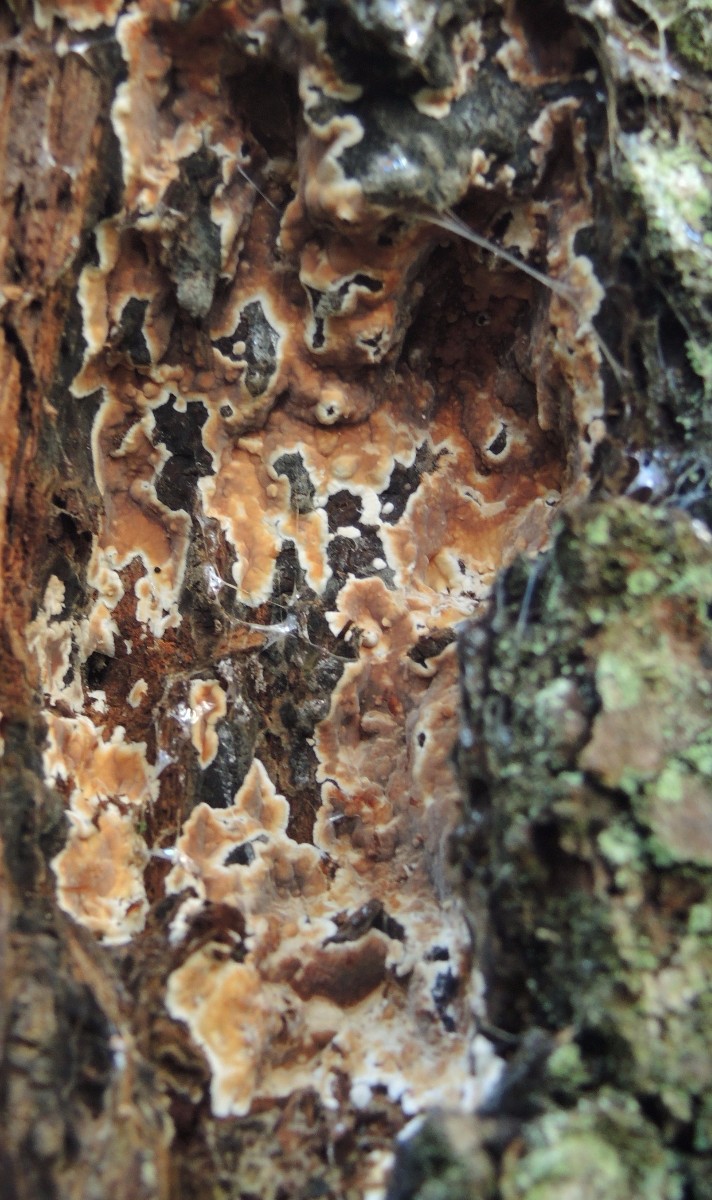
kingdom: Fungi
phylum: Basidiomycota
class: Agaricomycetes
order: Polyporales
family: Dacryobolaceae
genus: Dacryobolus
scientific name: Dacryobolus karstenii
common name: glat vulkanskorpe
